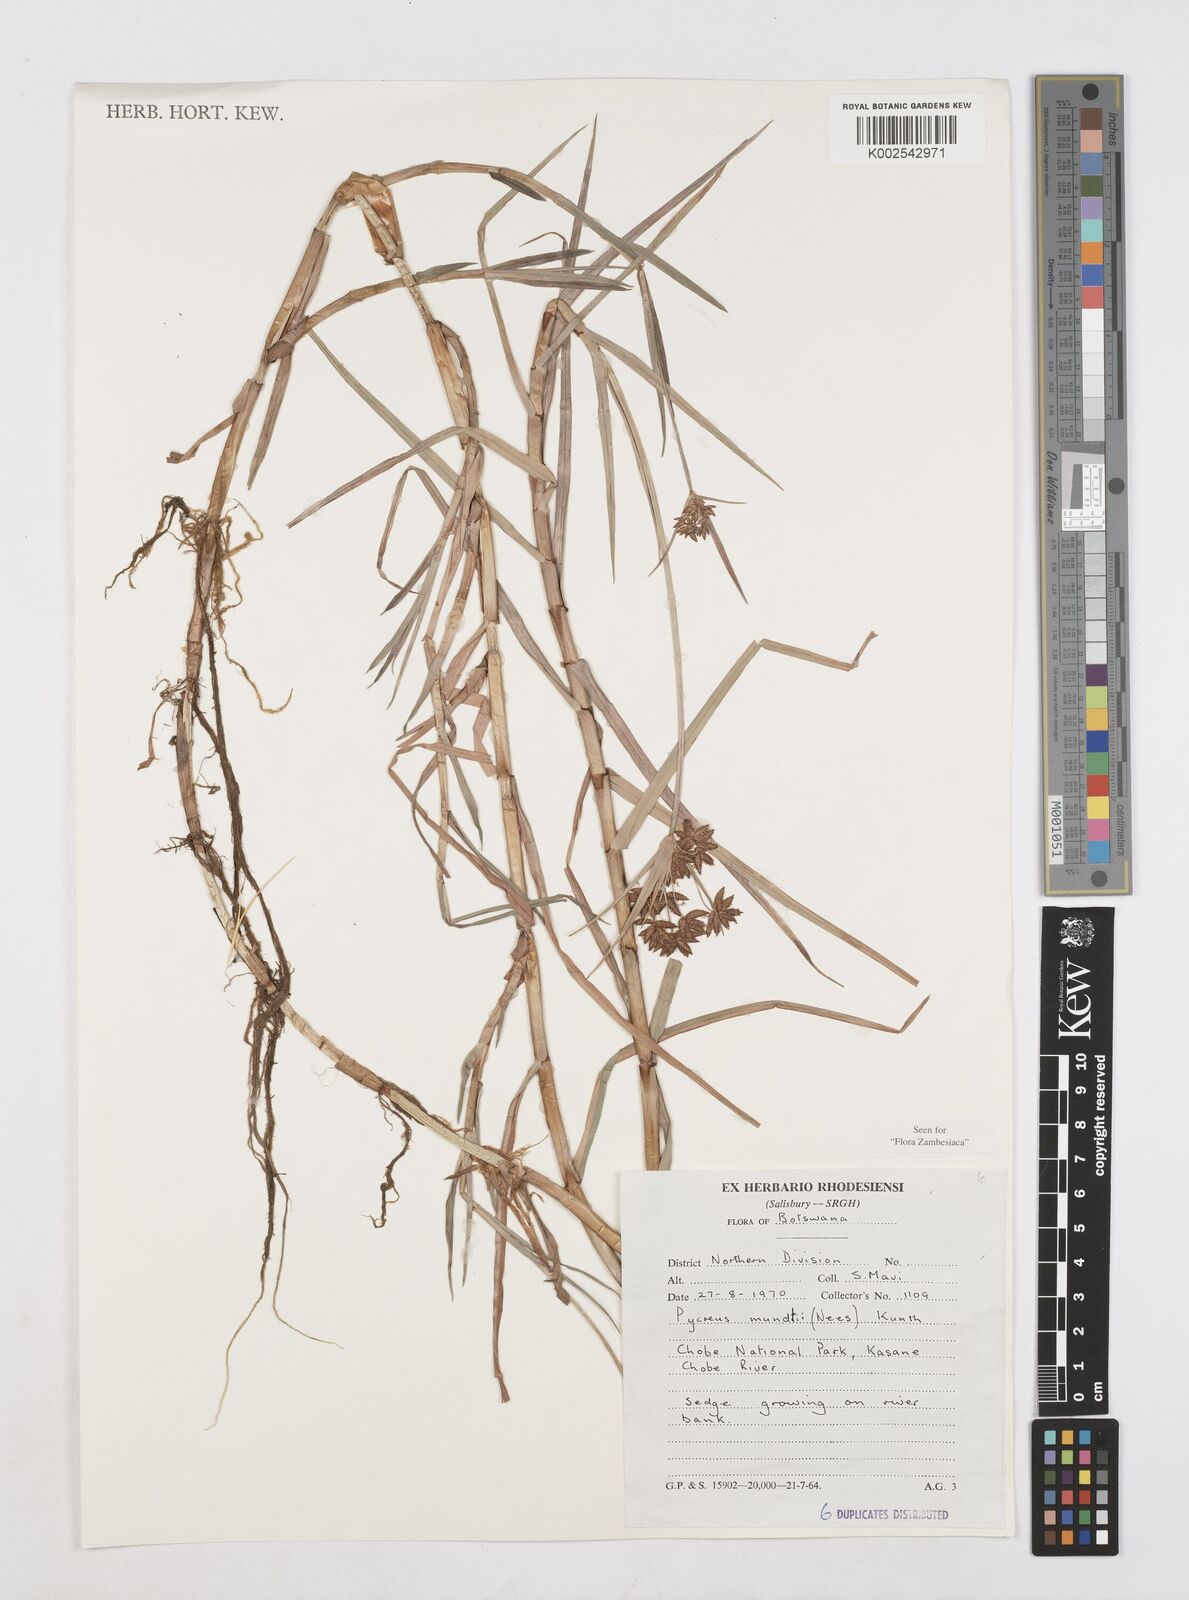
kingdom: Plantae
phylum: Tracheophyta
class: Liliopsida
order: Poales
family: Cyperaceae
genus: Cyperus
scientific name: Cyperus mundii
